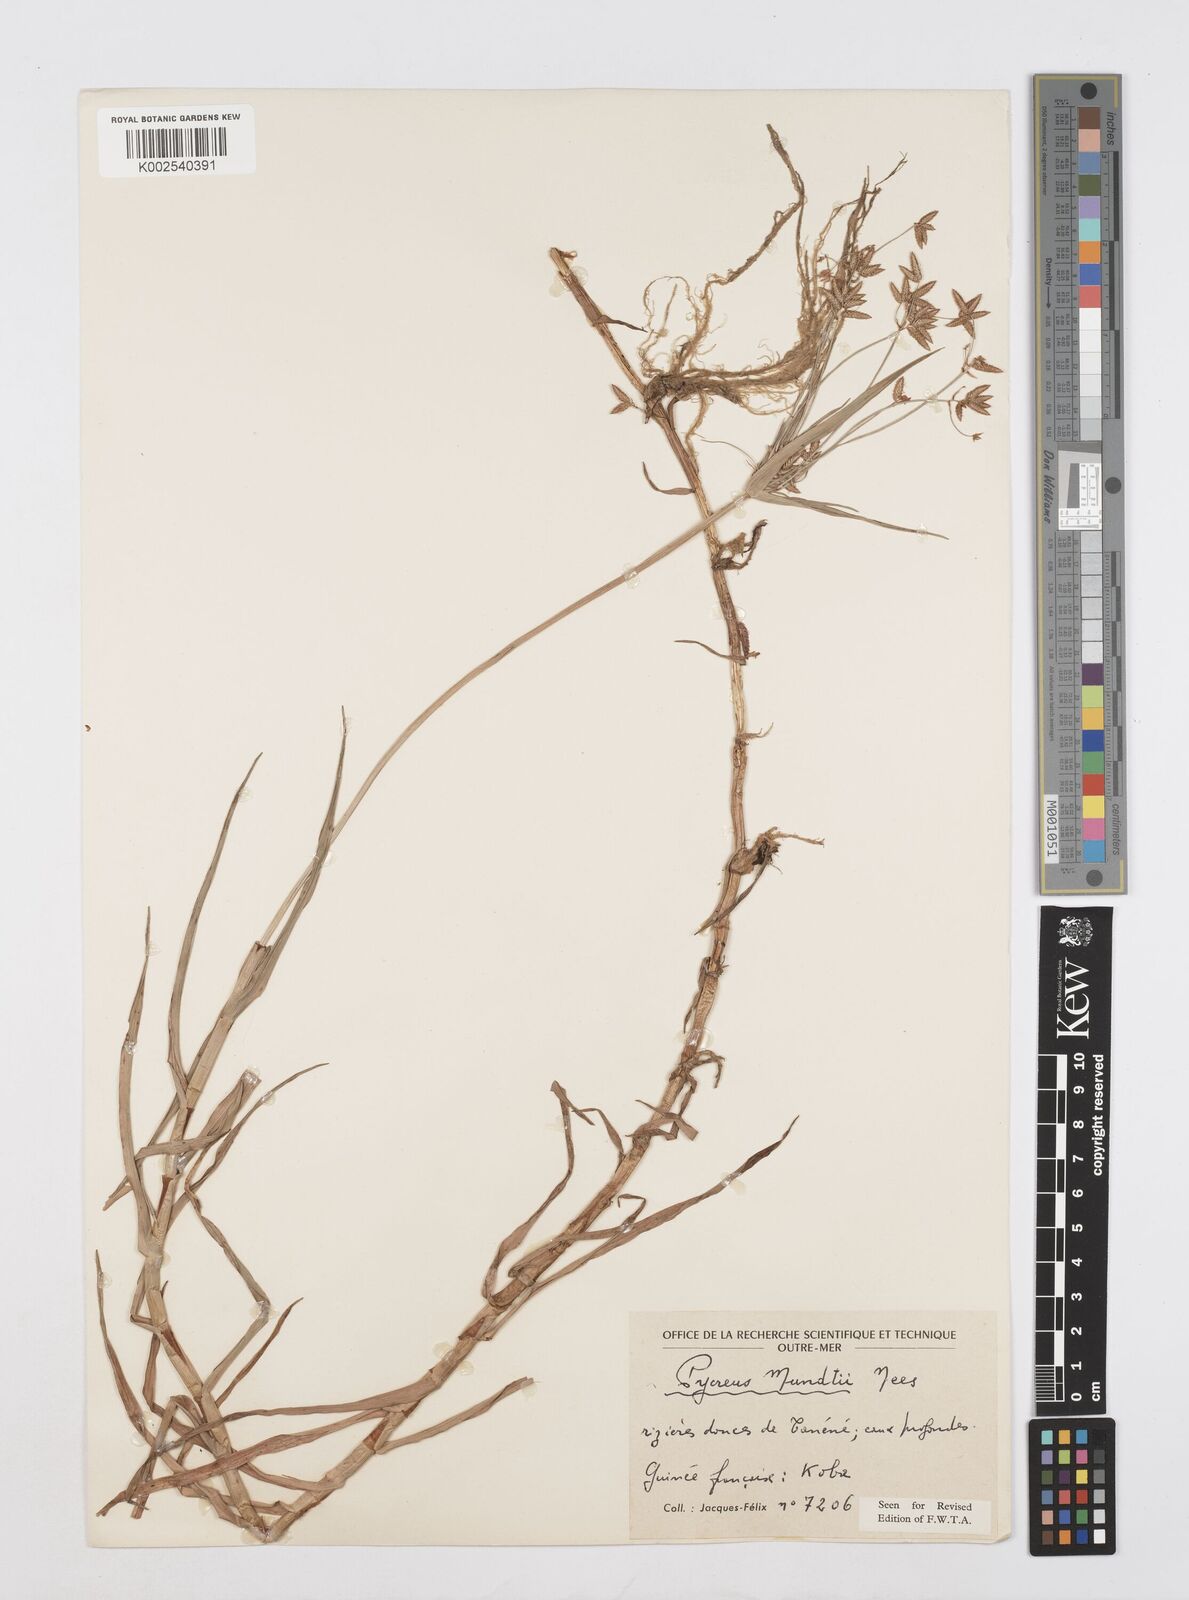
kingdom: Plantae
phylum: Tracheophyta
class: Liliopsida
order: Poales
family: Cyperaceae
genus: Cyperus
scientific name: Cyperus mundii
